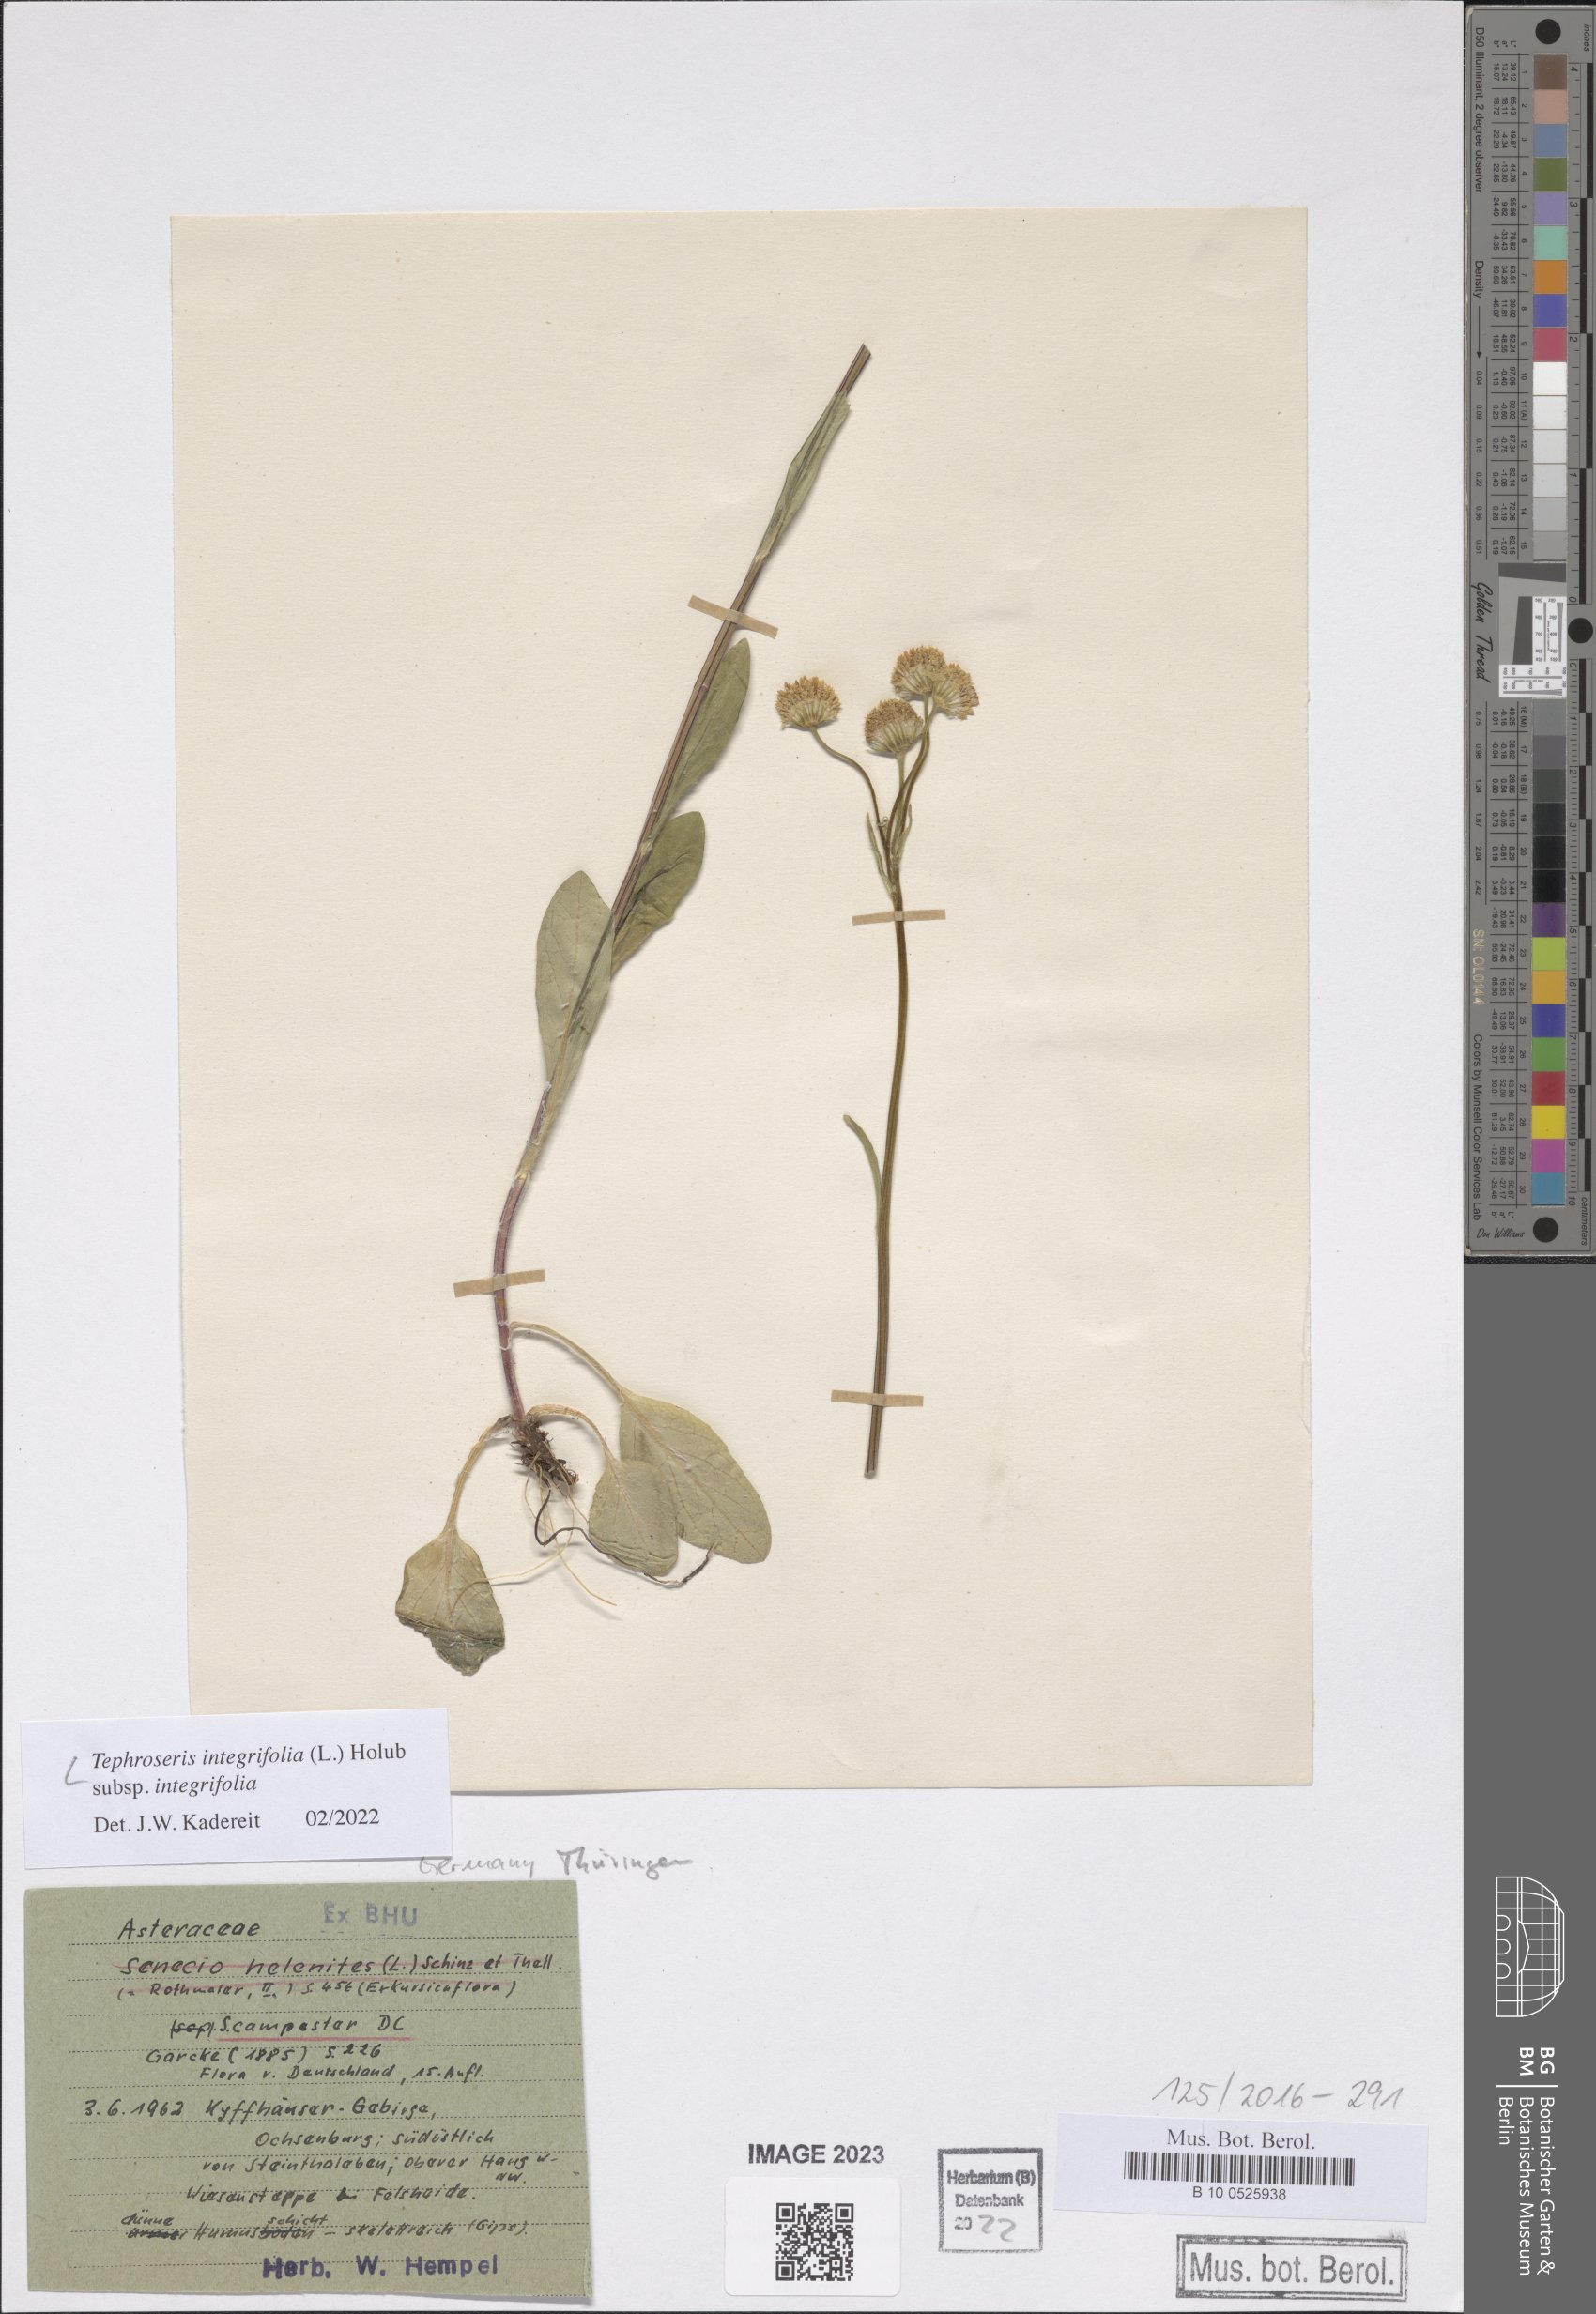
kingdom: Plantae
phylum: Tracheophyta
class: Magnoliopsida
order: Asterales
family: Asteraceae
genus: Tephroseris
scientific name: Tephroseris integrifolia
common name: Field fleawort
